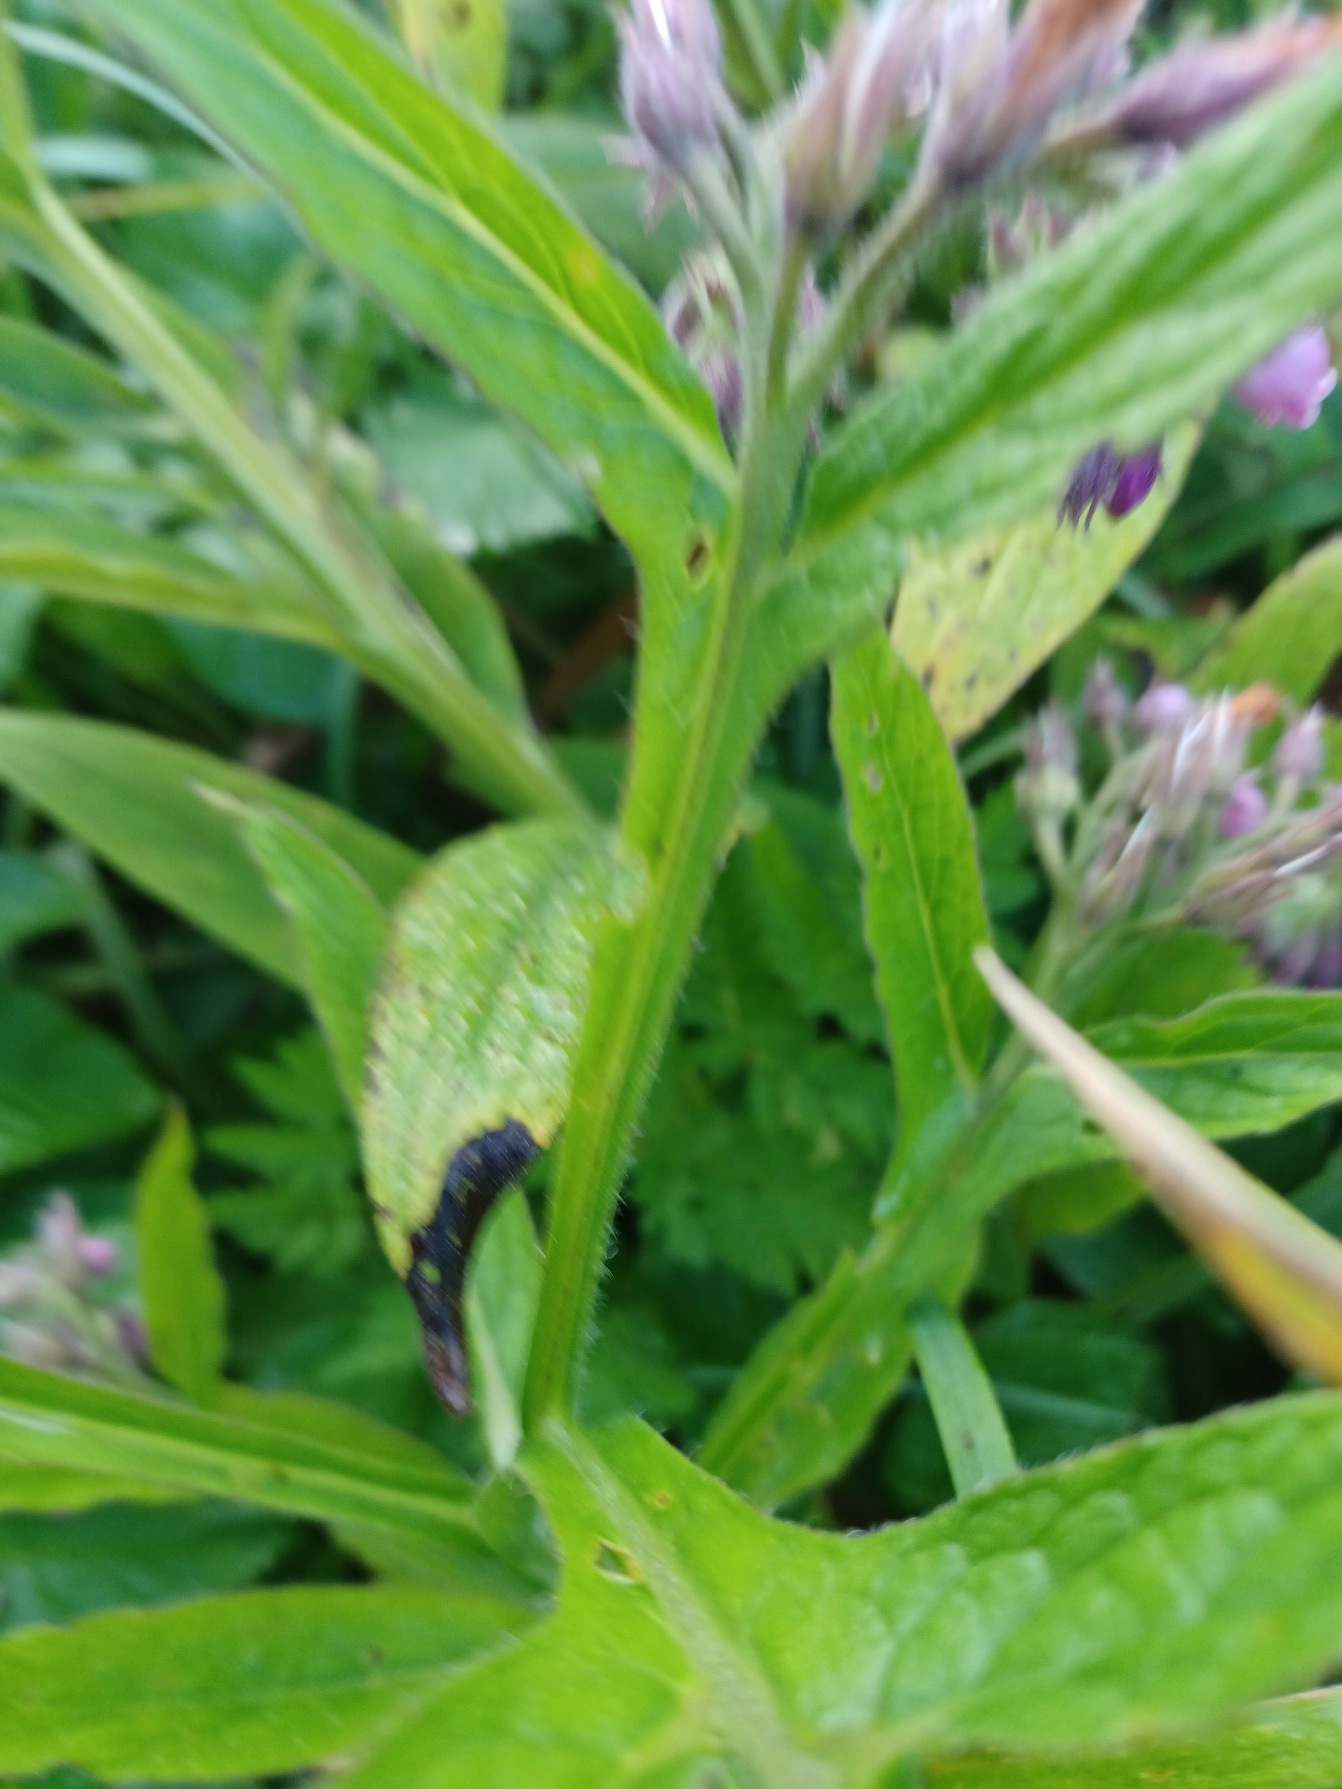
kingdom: Plantae
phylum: Tracheophyta
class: Magnoliopsida
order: Boraginales
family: Boraginaceae
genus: Symphytum
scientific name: Symphytum officinale
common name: Læge-kulsukker
